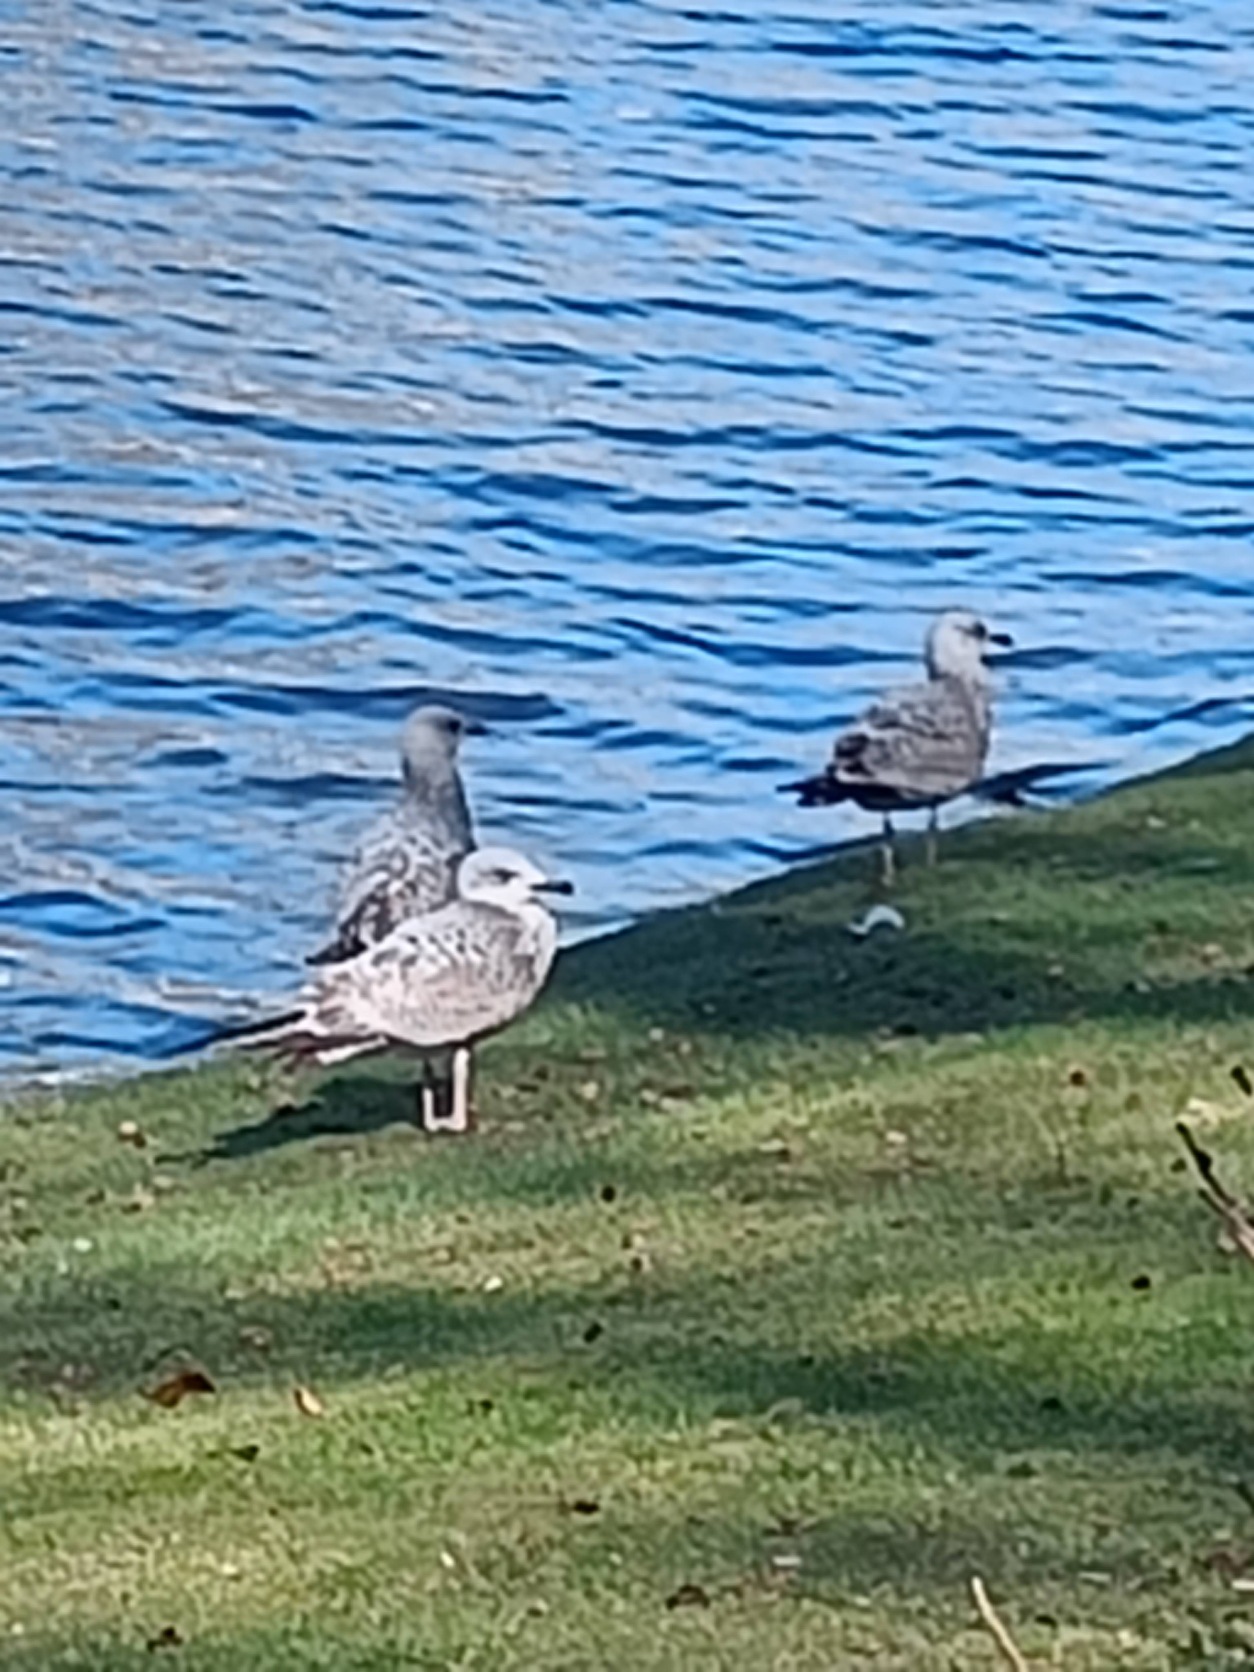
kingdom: Animalia
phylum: Chordata
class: Aves
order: Charadriiformes
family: Laridae
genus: Larus
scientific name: Larus argentatus
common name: Sølvmåge
